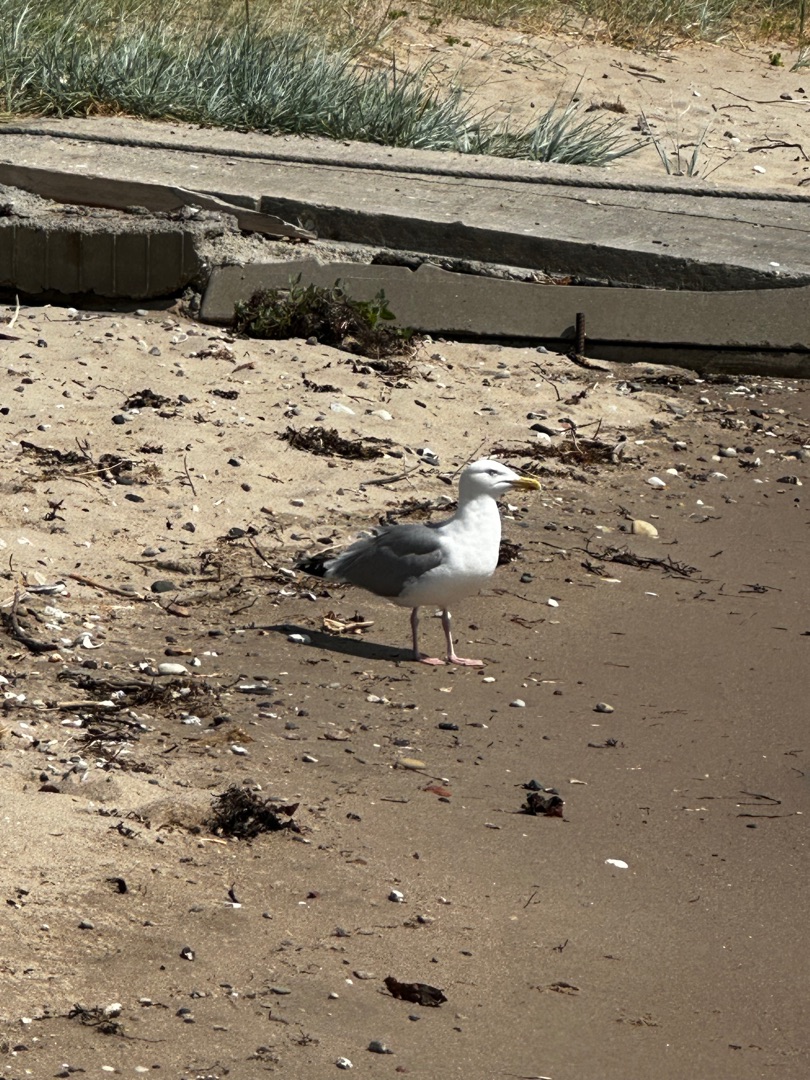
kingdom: Animalia
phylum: Chordata
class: Aves
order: Charadriiformes
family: Laridae
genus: Larus
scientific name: Larus argentatus
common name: Sølvmåge
